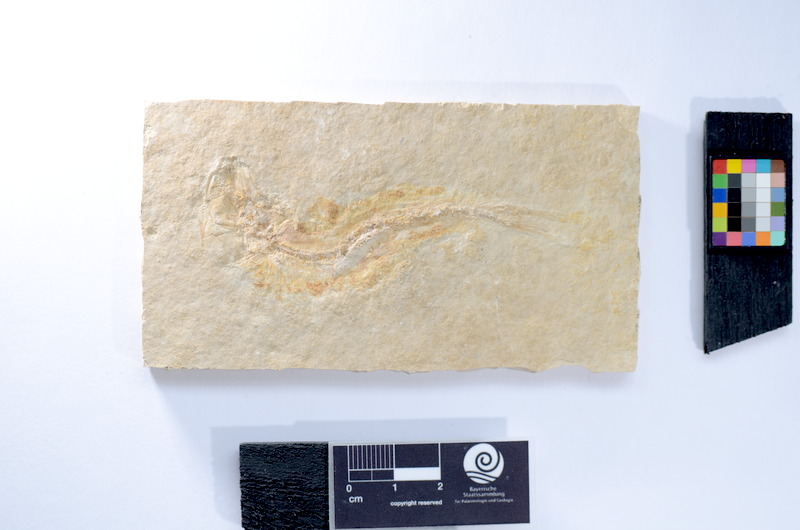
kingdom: Animalia
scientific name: Animalia
